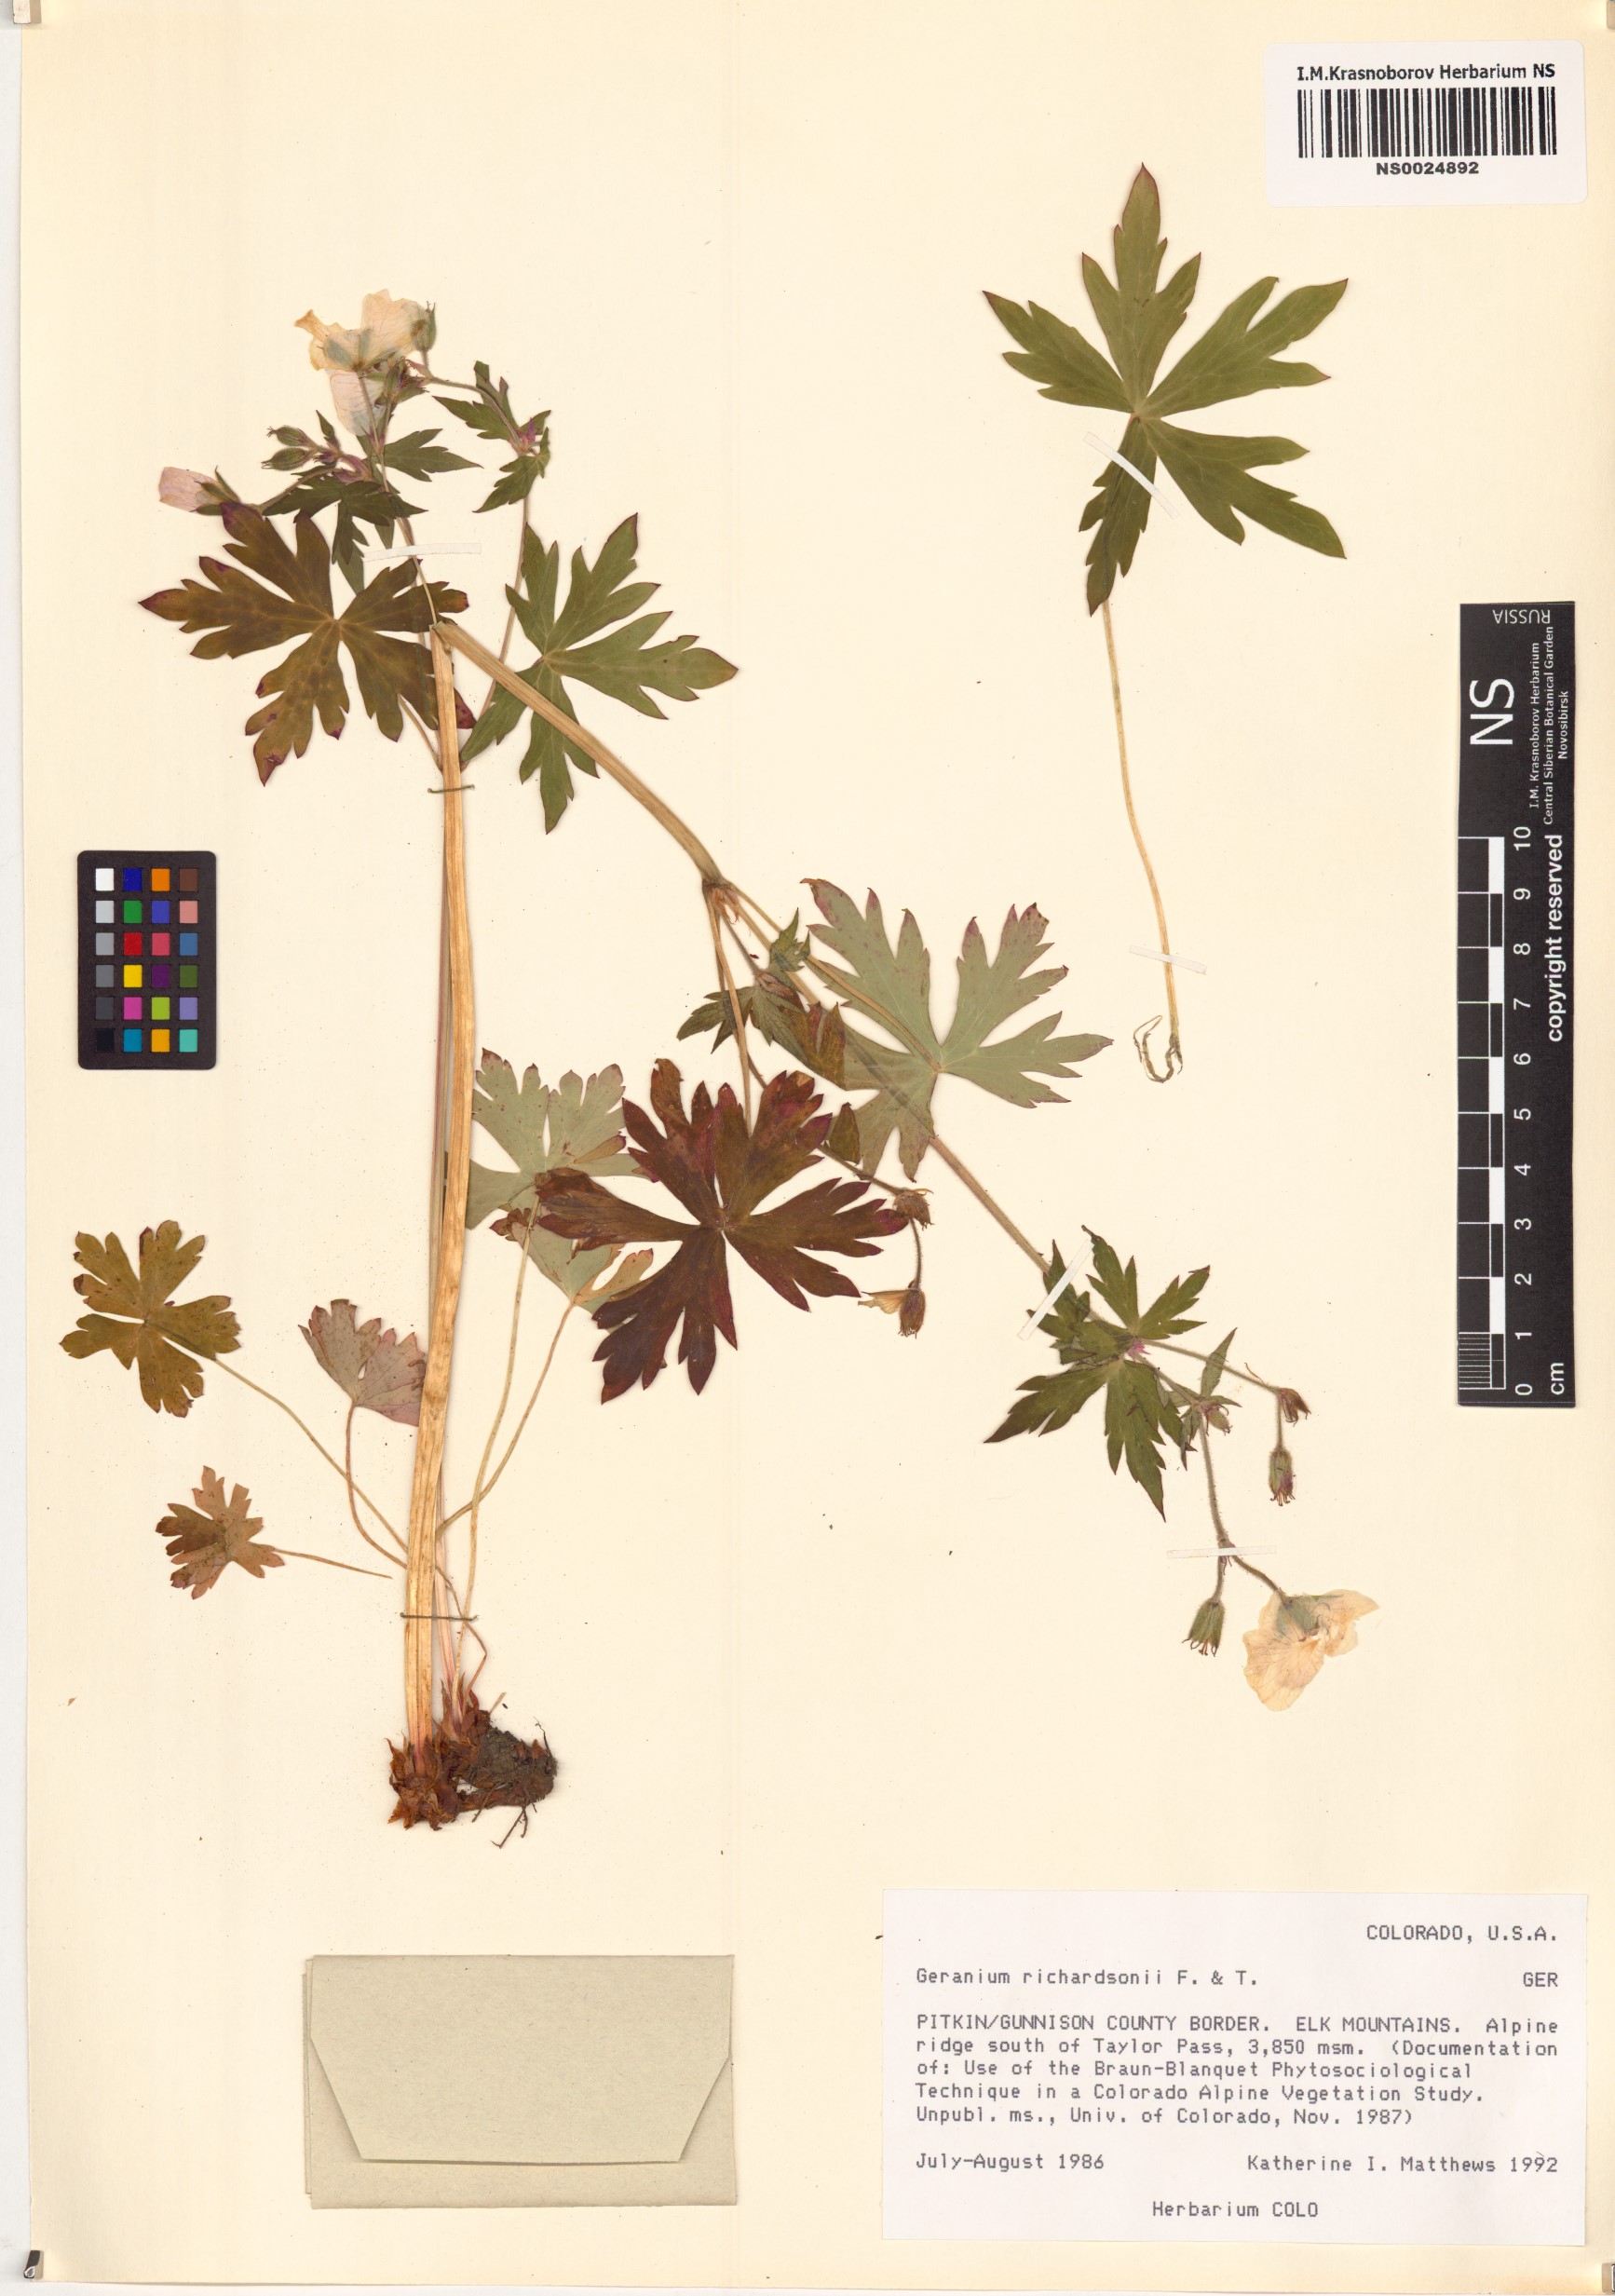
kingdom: Plantae
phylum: Tracheophyta
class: Magnoliopsida
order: Geraniales
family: Geraniaceae
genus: Geranium
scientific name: Geranium richardsonii
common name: Richardson's crane's-bill
